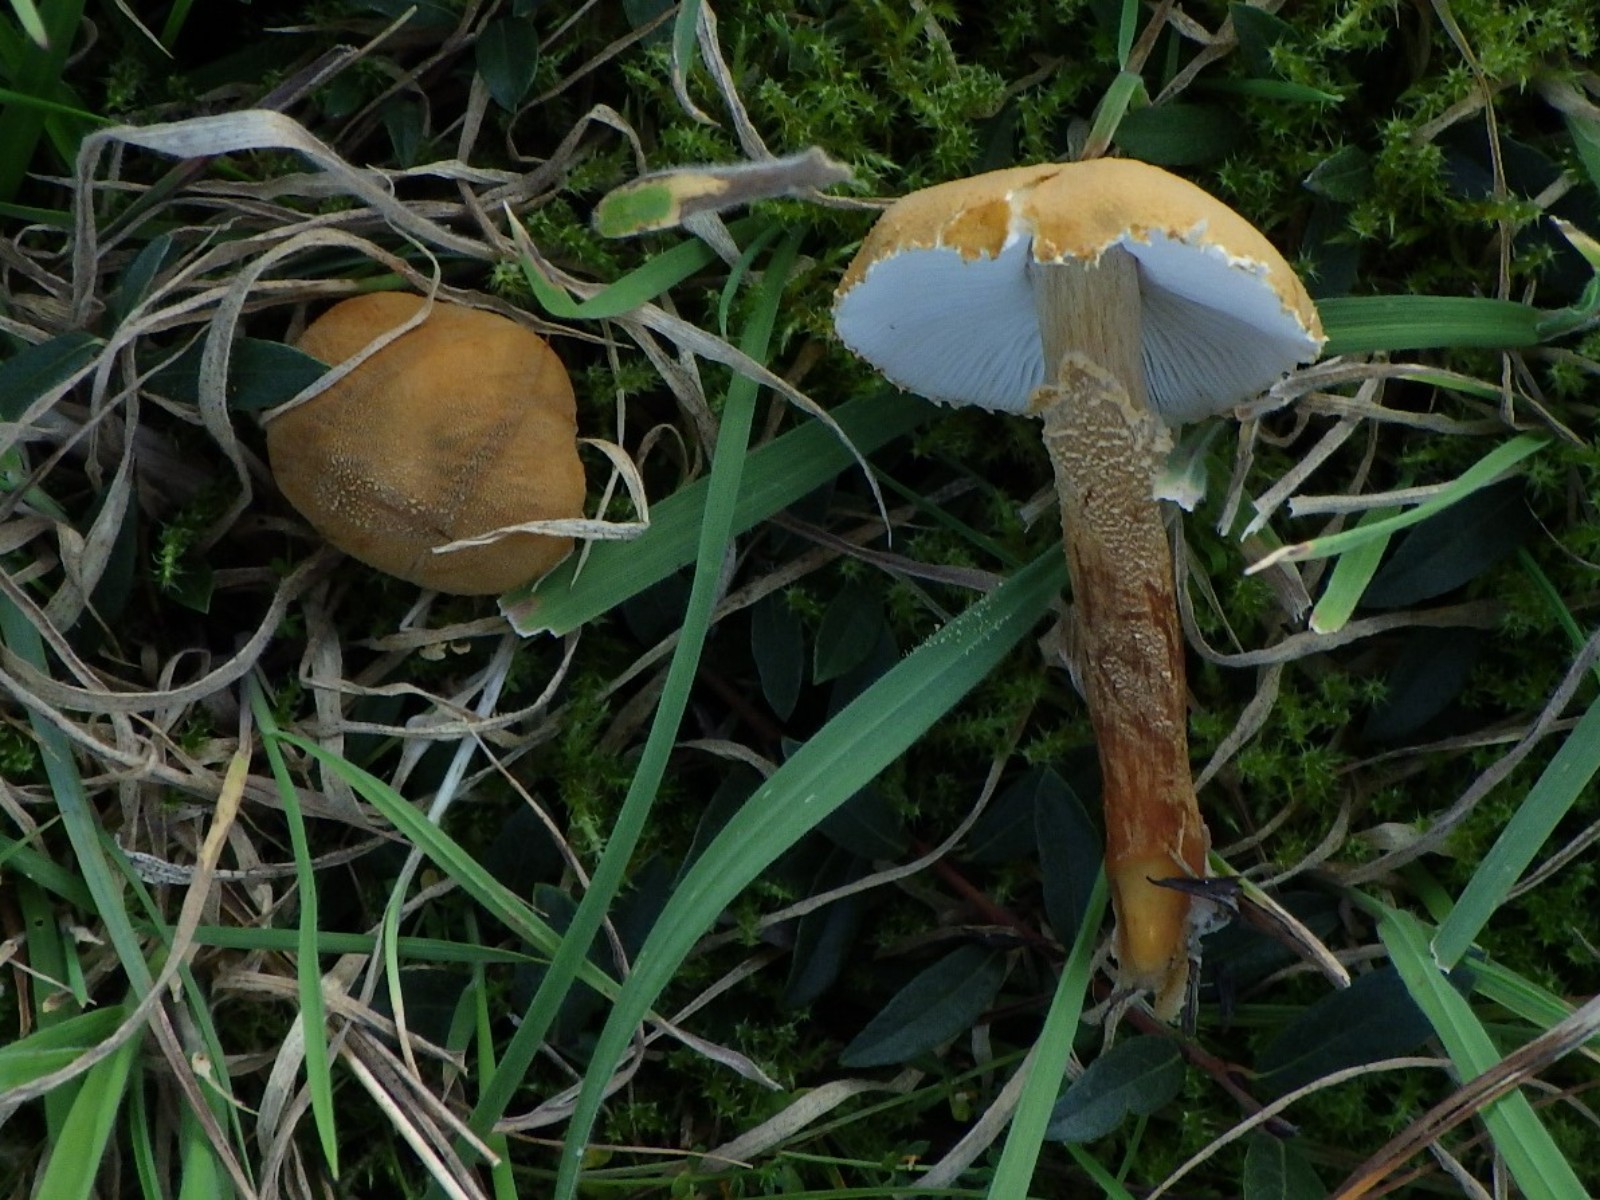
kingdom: Fungi
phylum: Basidiomycota
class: Agaricomycetes
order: Agaricales
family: Tricholomataceae
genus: Cystoderma
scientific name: Cystoderma amianthinum
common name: okkergul grynhat
